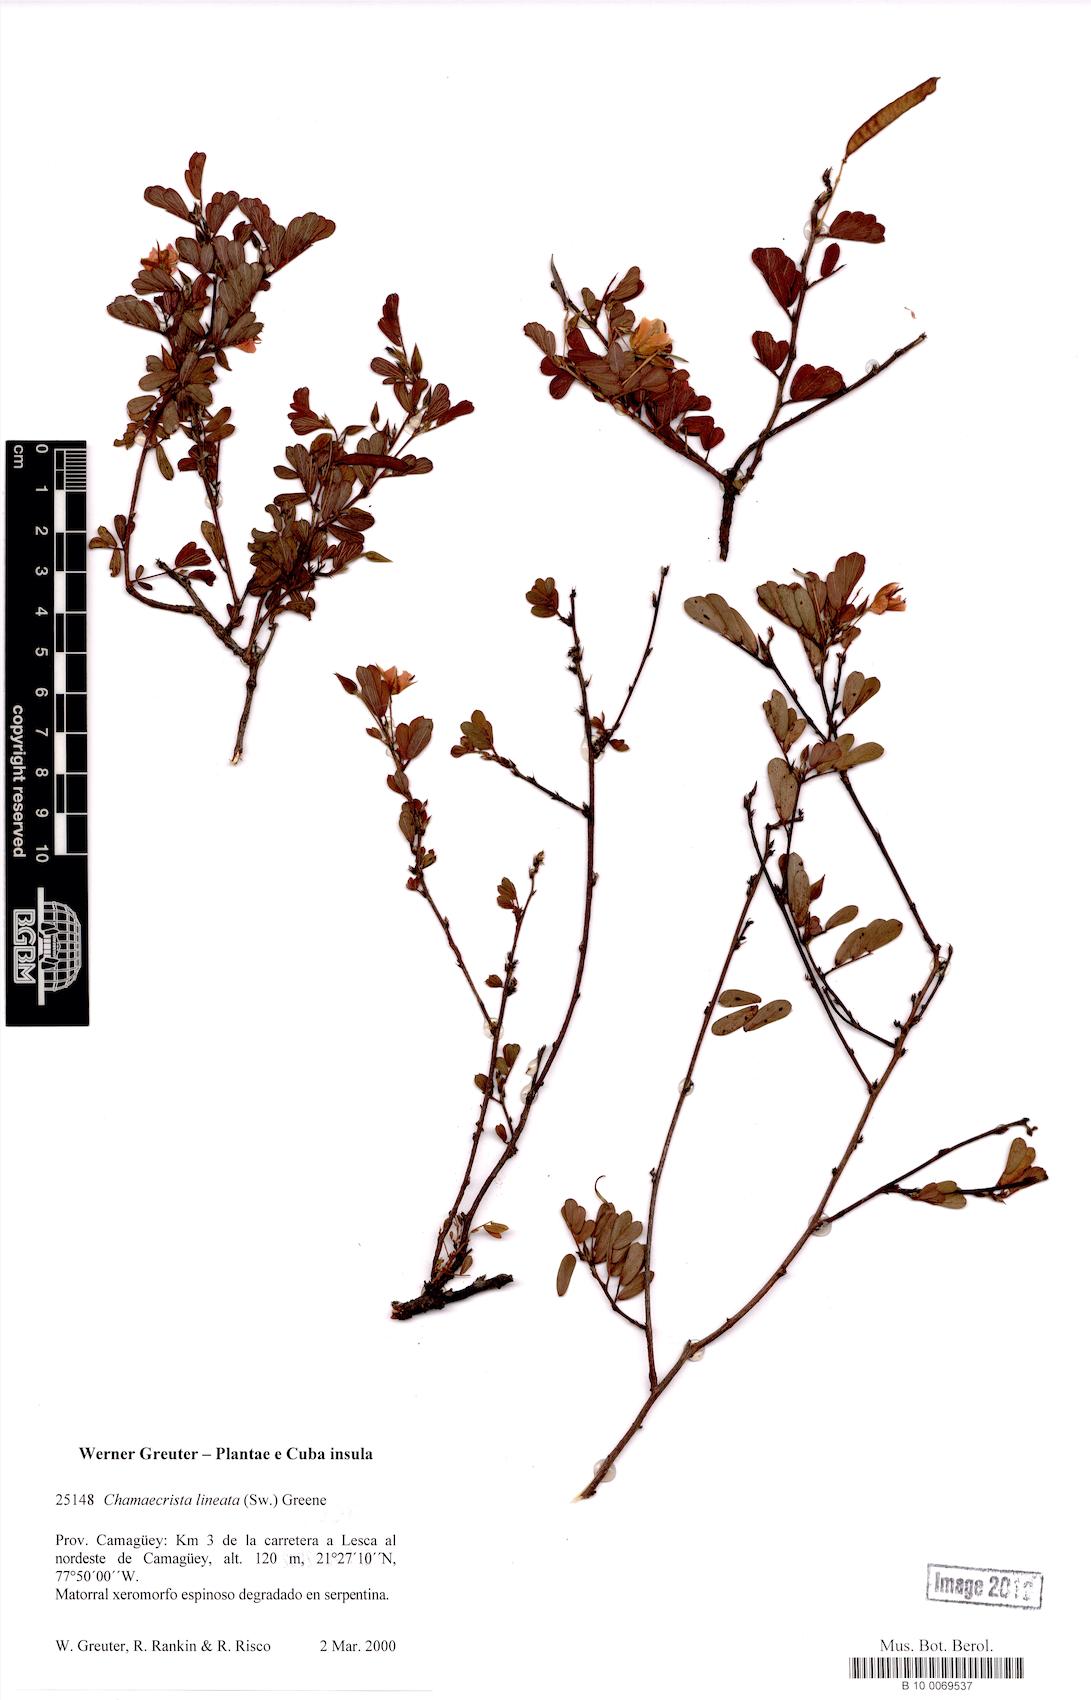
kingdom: Plantae
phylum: Tracheophyta
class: Magnoliopsida
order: Fabales
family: Fabaceae
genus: Chamaecrista
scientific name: Chamaecrista lineata
